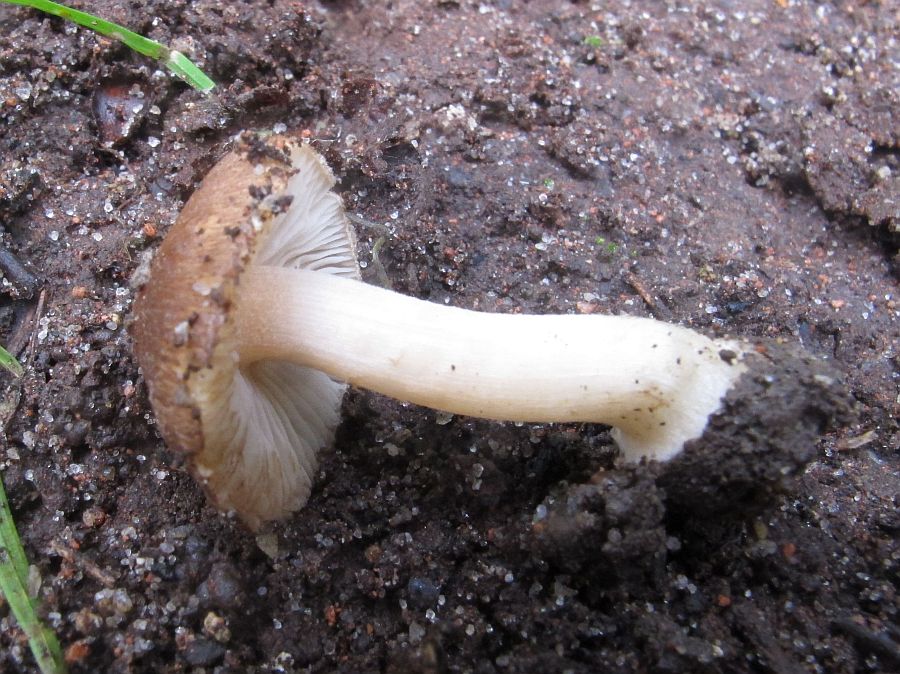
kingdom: Fungi
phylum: Basidiomycota
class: Agaricomycetes
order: Agaricales
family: Inocybaceae
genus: Inocybe
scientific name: Inocybe pelargonium
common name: pelargonie-trævlhat
